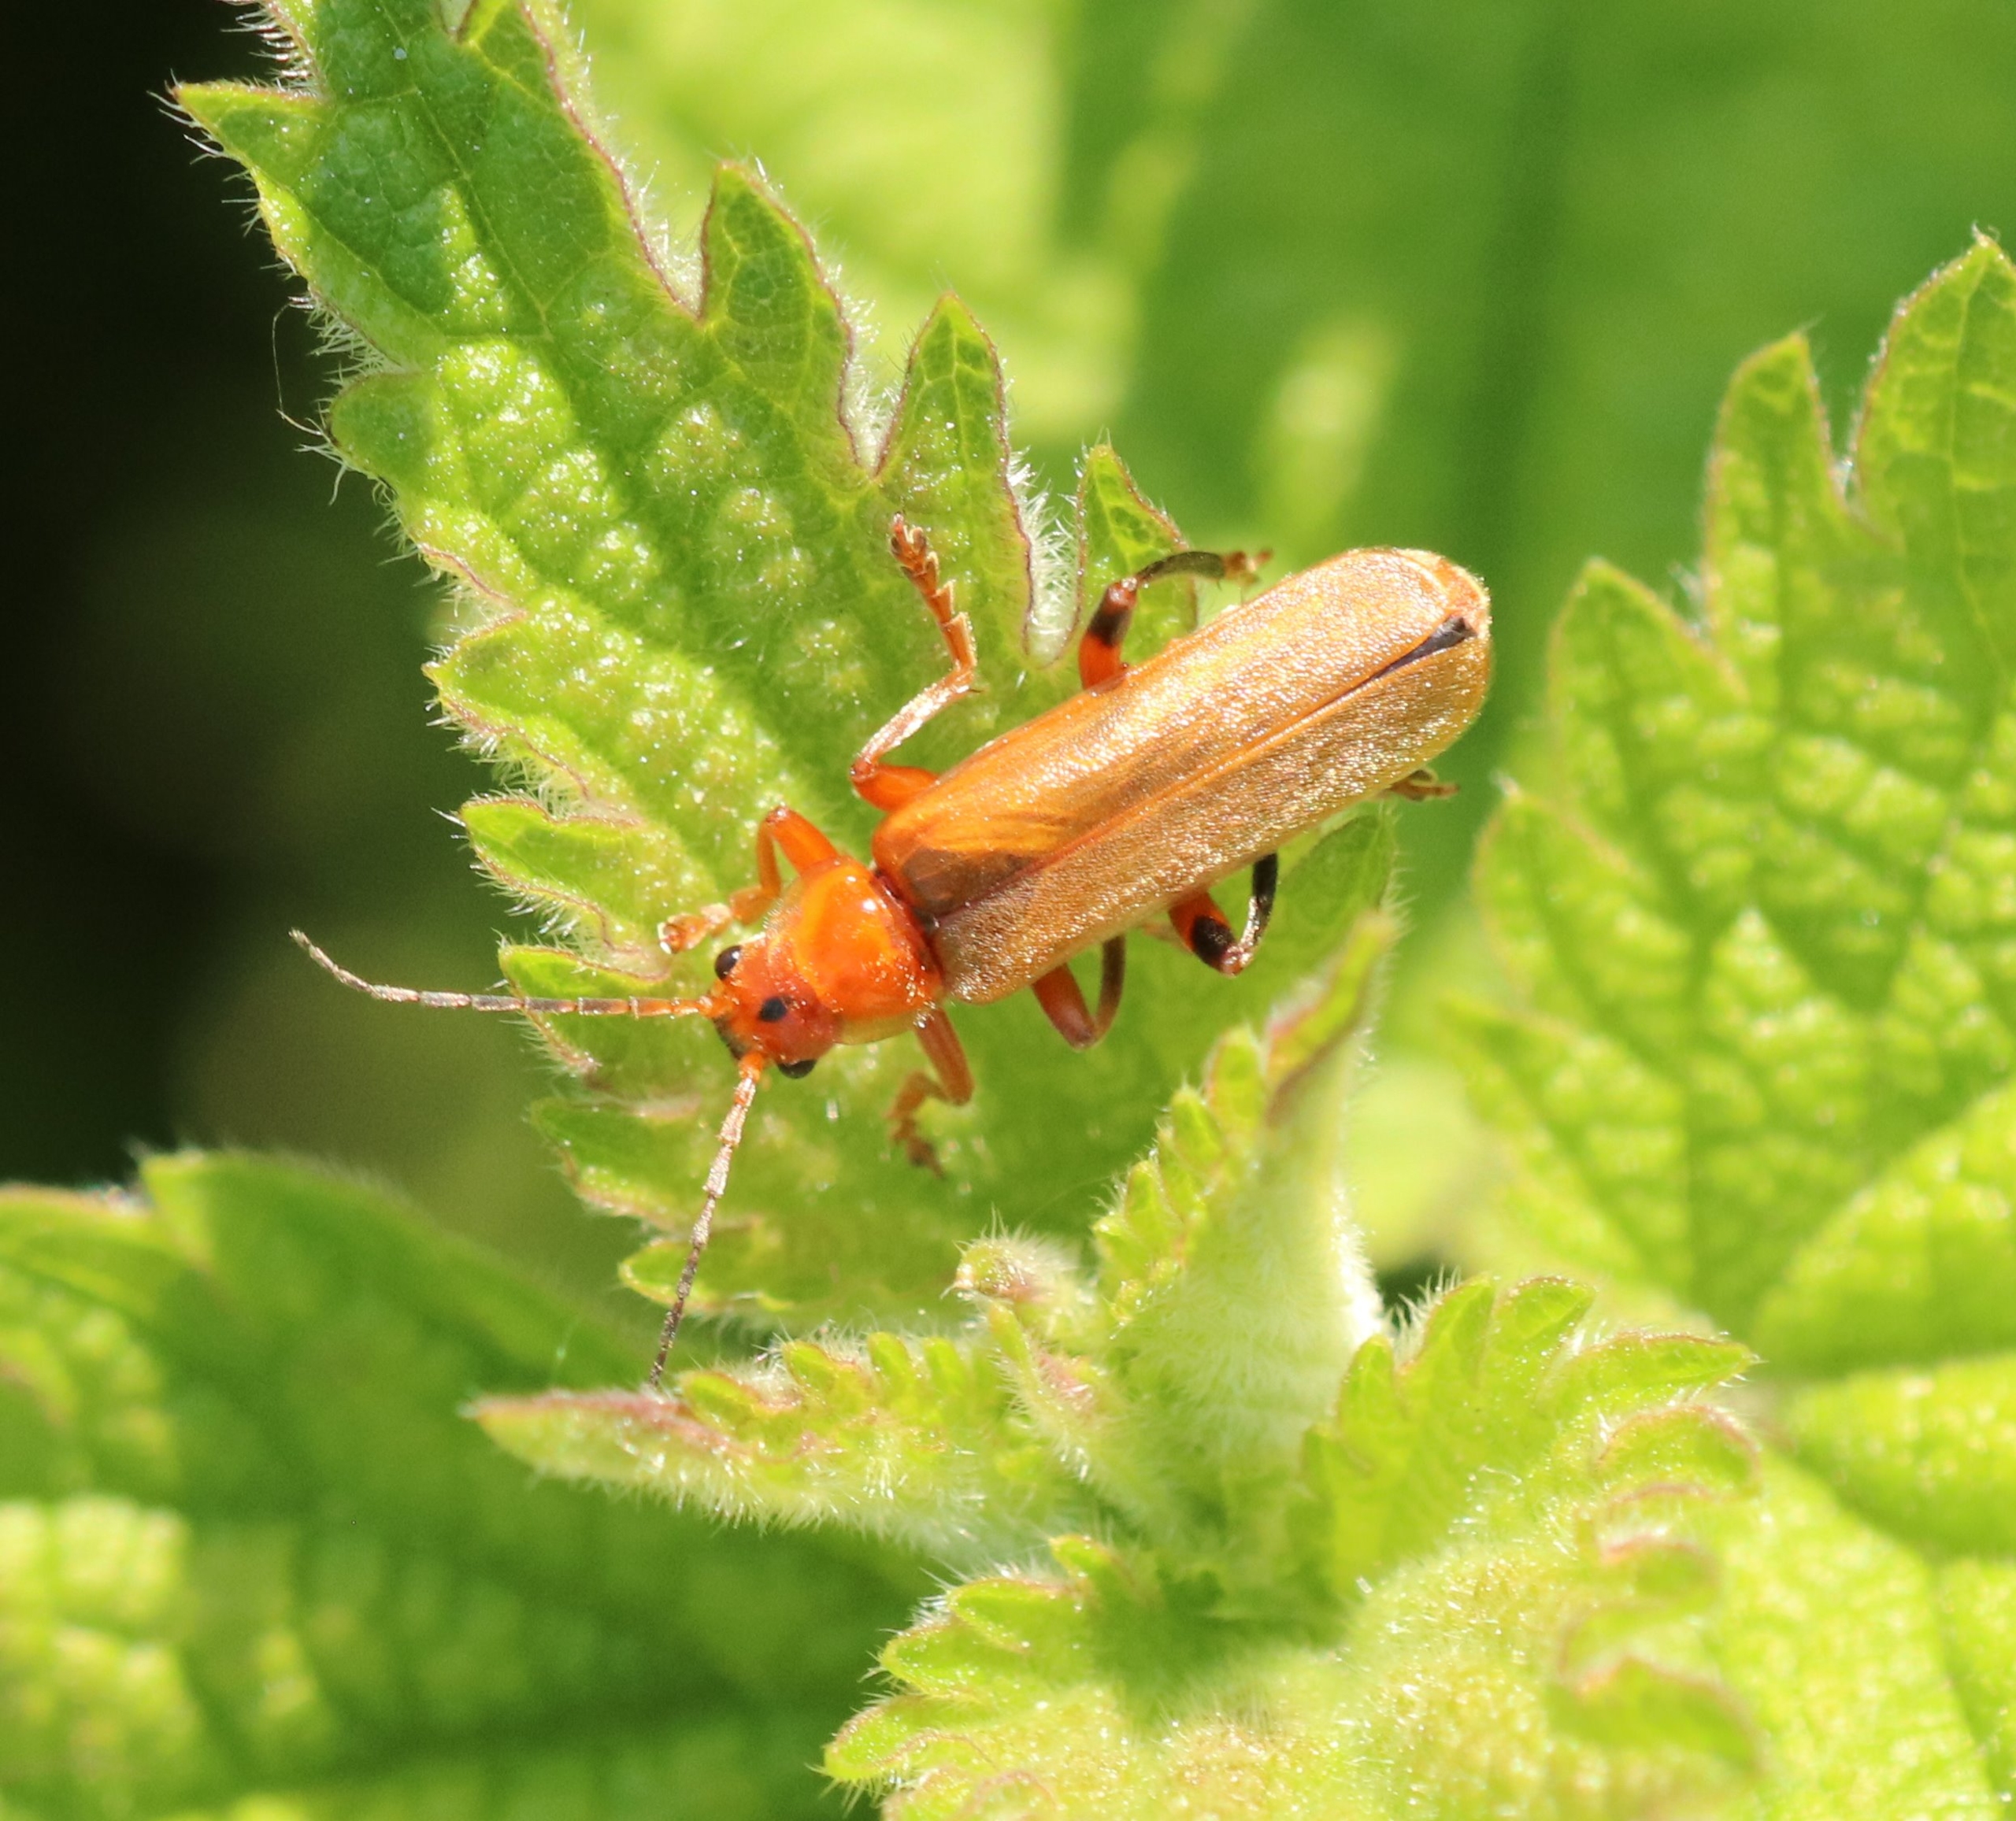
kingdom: Animalia
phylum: Arthropoda
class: Insecta
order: Coleoptera
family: Cantharidae
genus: Cantharis
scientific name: Cantharis livida
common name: Gul blødvinge
